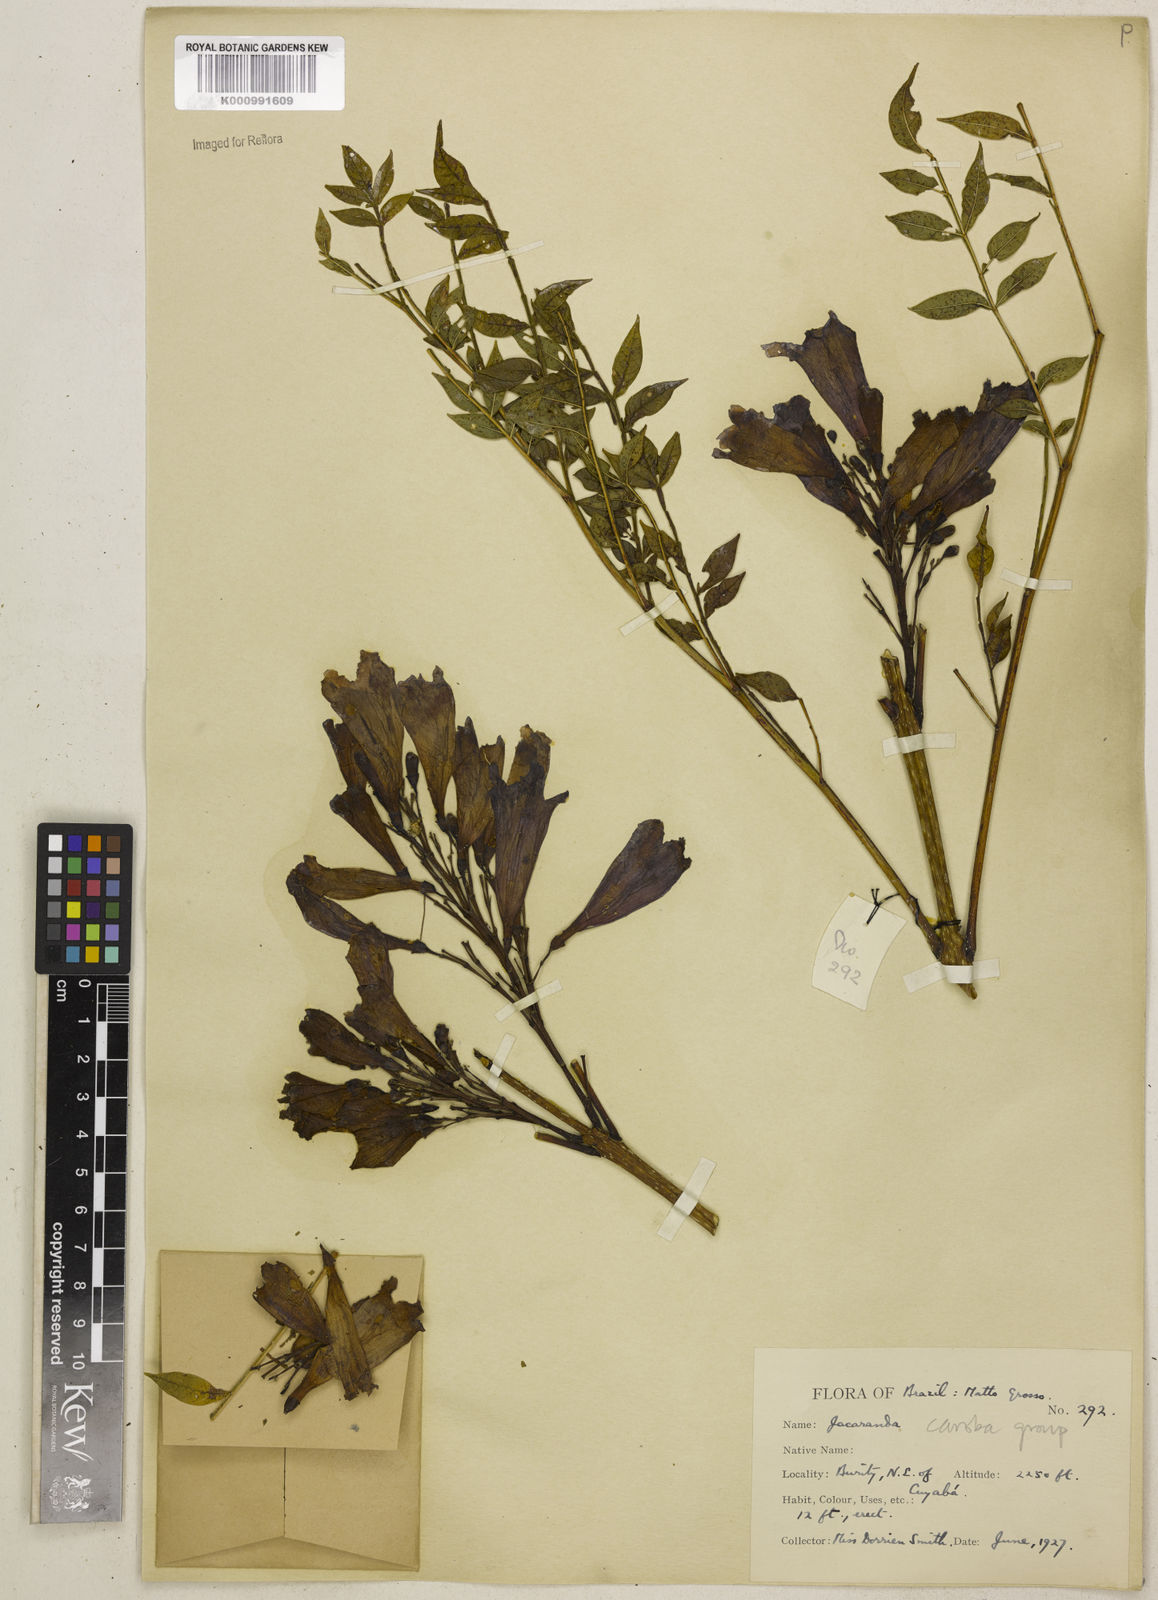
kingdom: Plantae
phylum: Tracheophyta
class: Magnoliopsida
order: Lamiales
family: Bignoniaceae
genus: Jacaranda
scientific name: Jacaranda caroba
